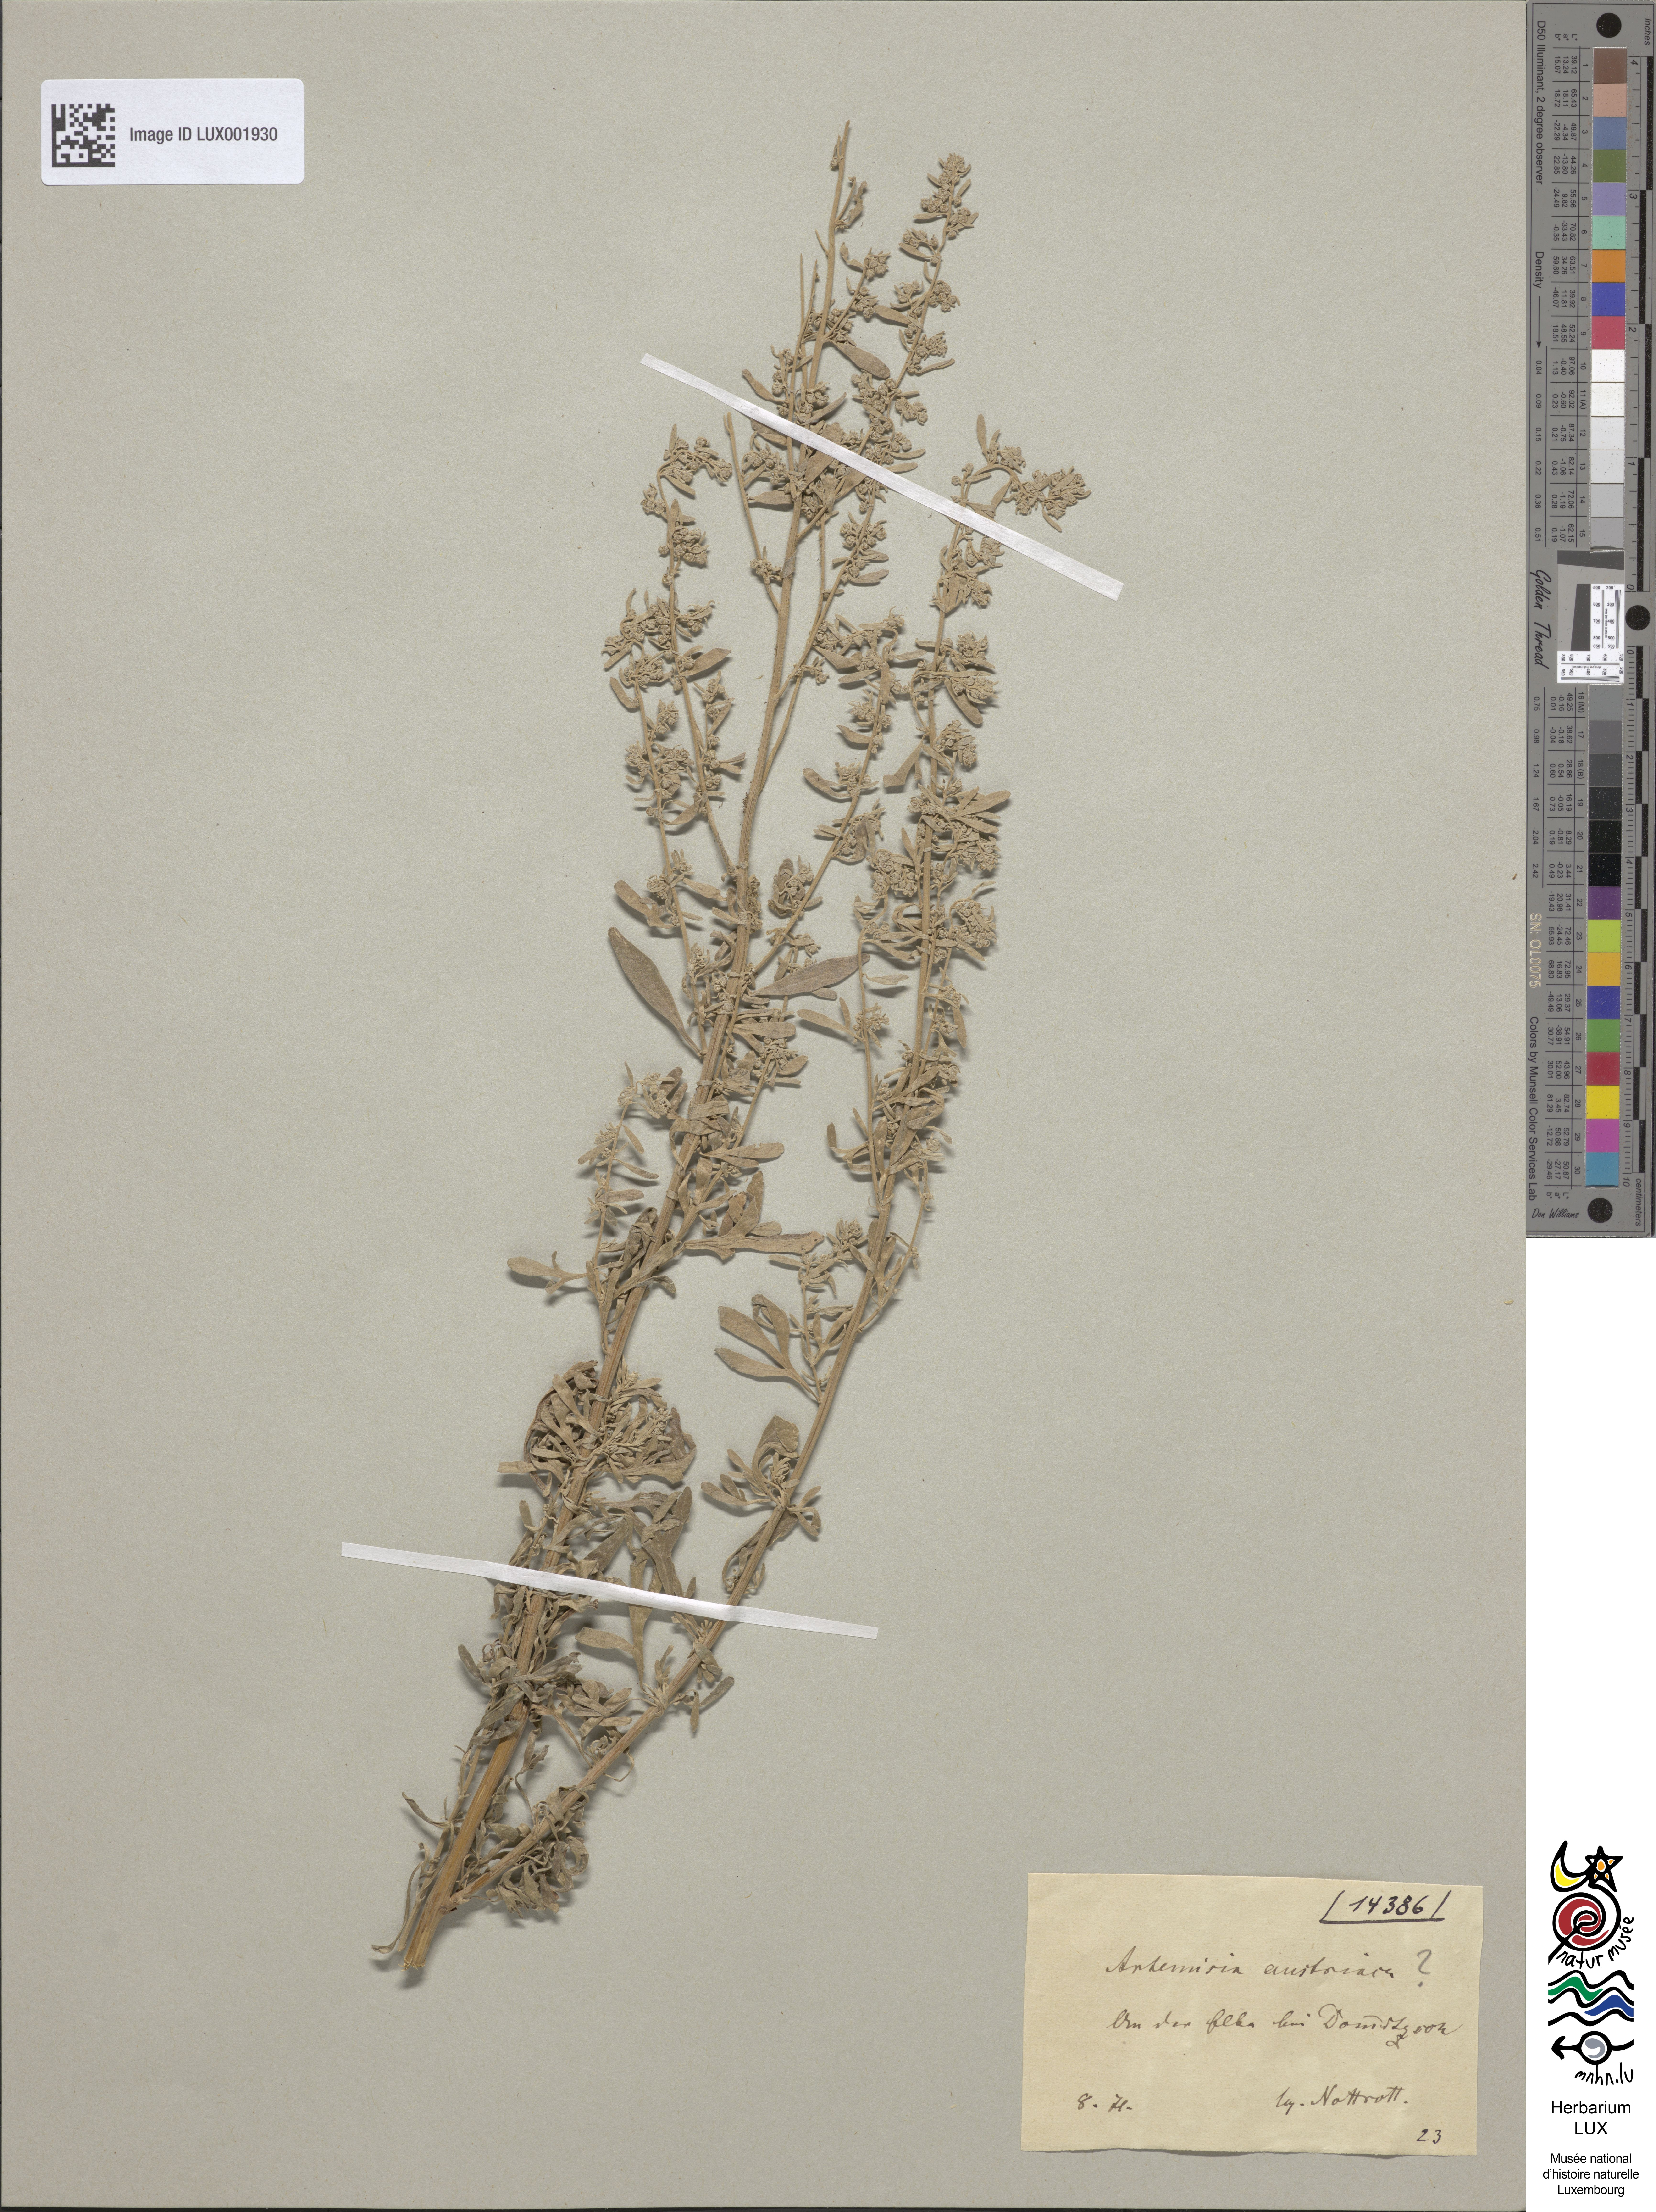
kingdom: Plantae
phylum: Tracheophyta
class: Magnoliopsida
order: Asterales
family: Asteraceae
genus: Artemisia
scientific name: Artemisia austriaca
